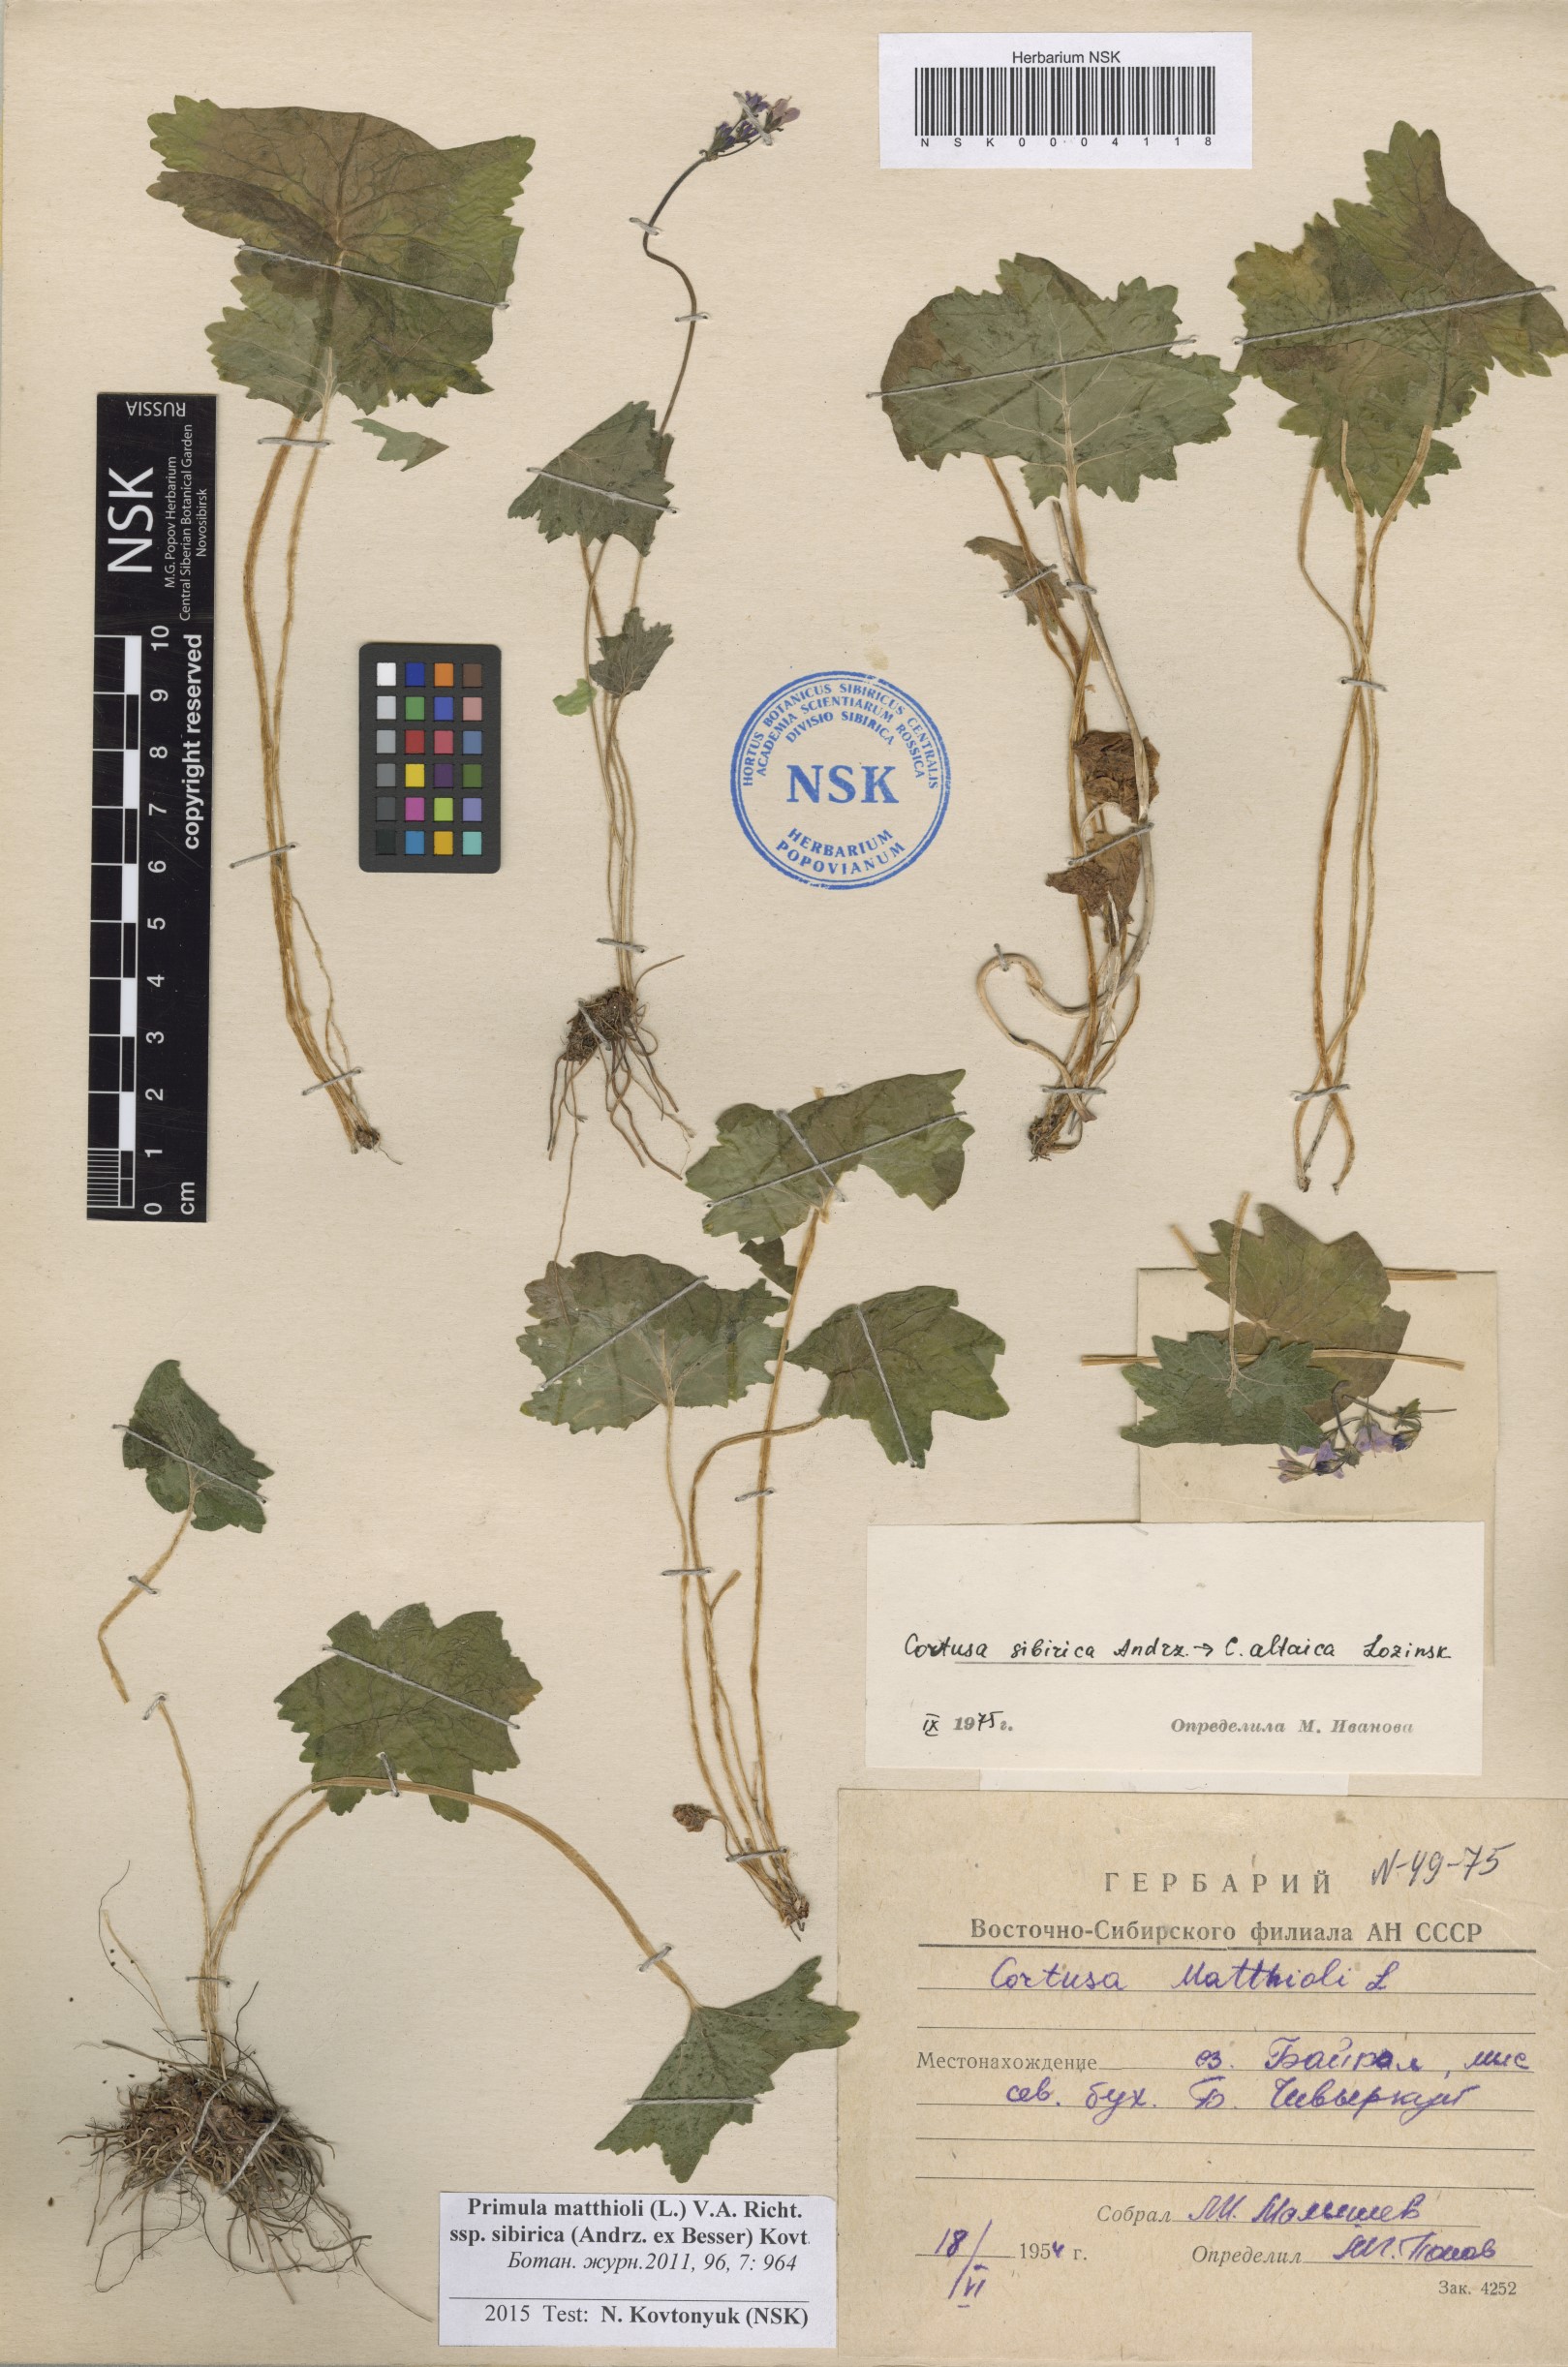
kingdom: Plantae
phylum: Tracheophyta
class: Magnoliopsida
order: Ericales
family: Primulaceae
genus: Primula
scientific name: Primula matthioli
